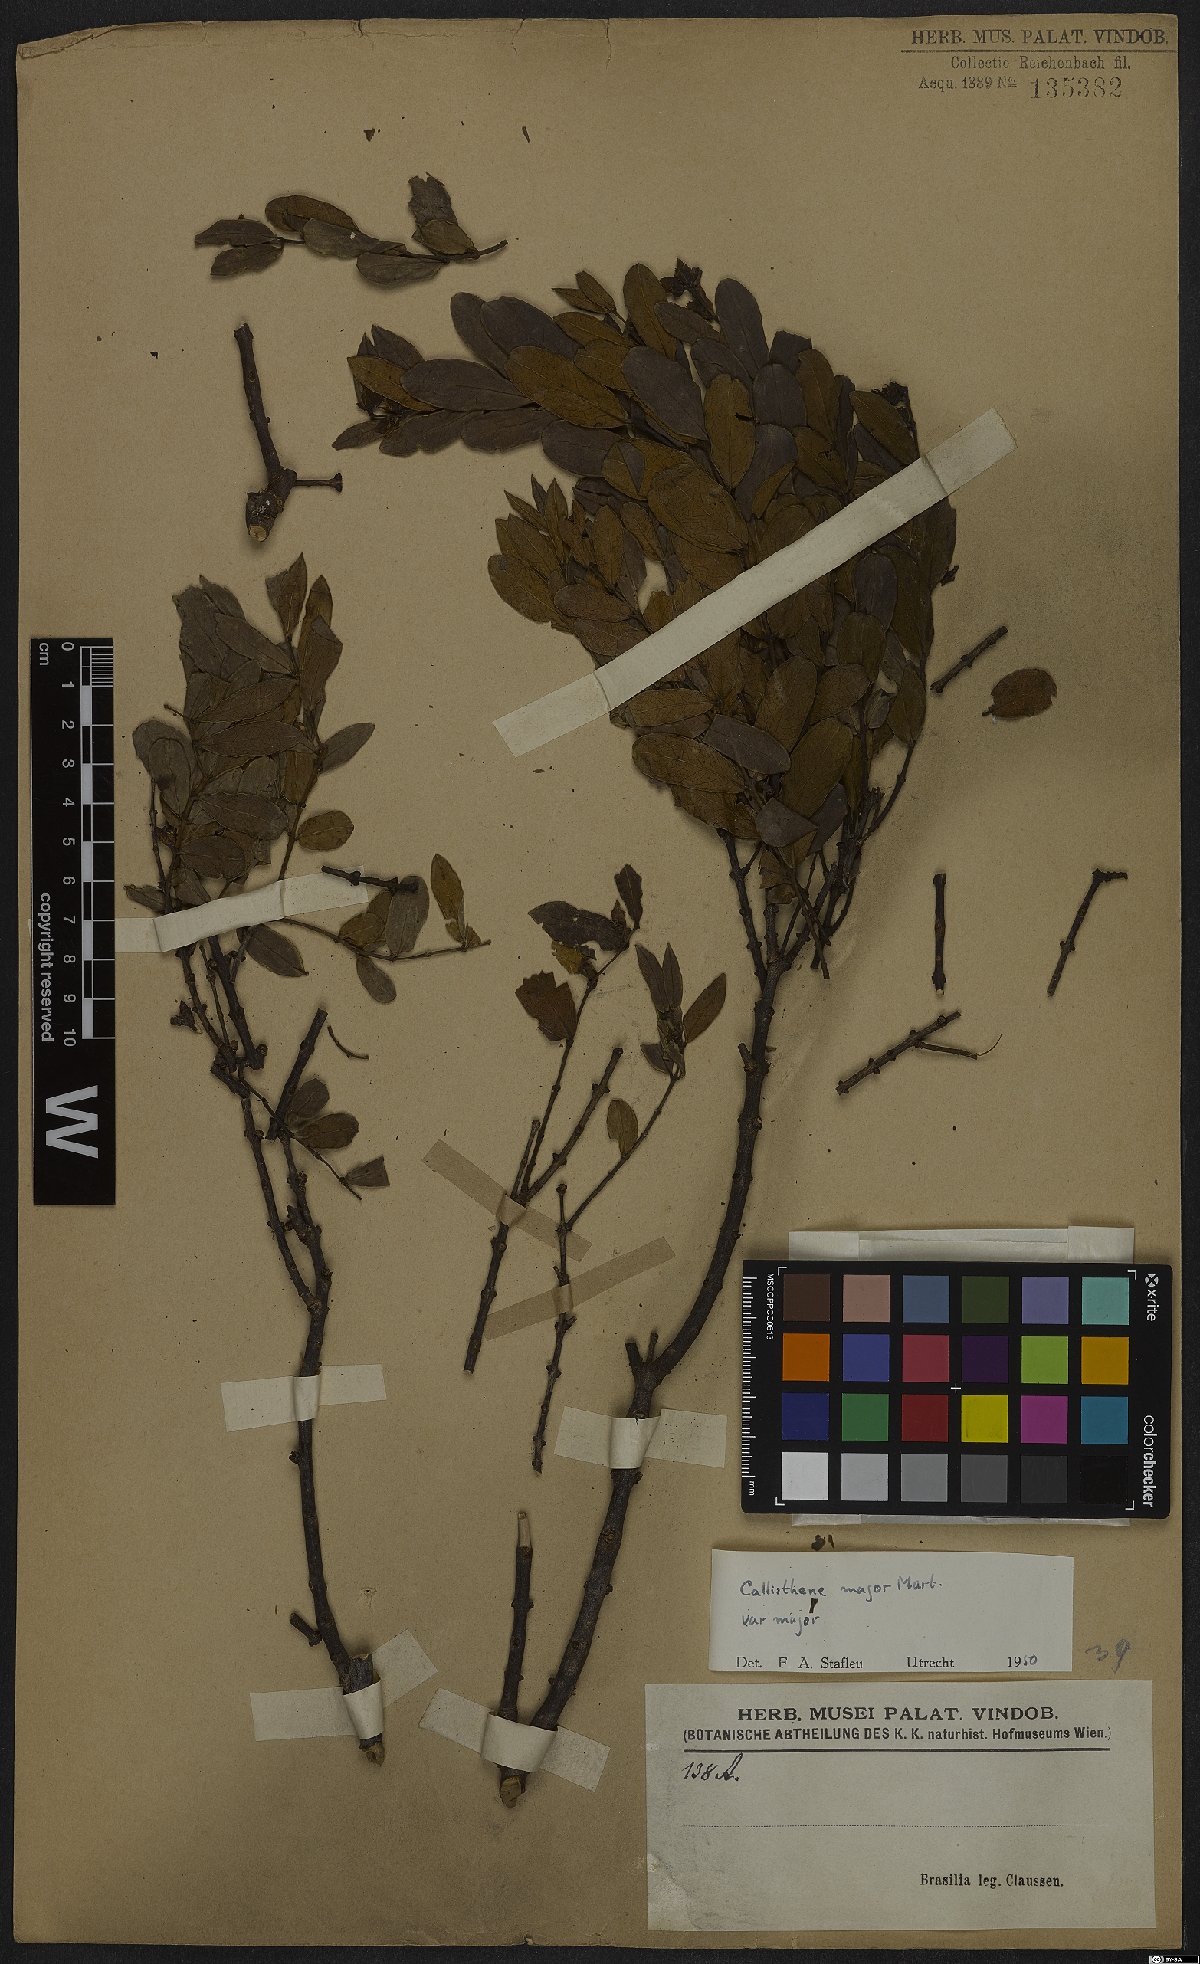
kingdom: Plantae
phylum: Tracheophyta
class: Magnoliopsida
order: Myrtales
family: Vochysiaceae
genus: Callisthene
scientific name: Callisthene major
